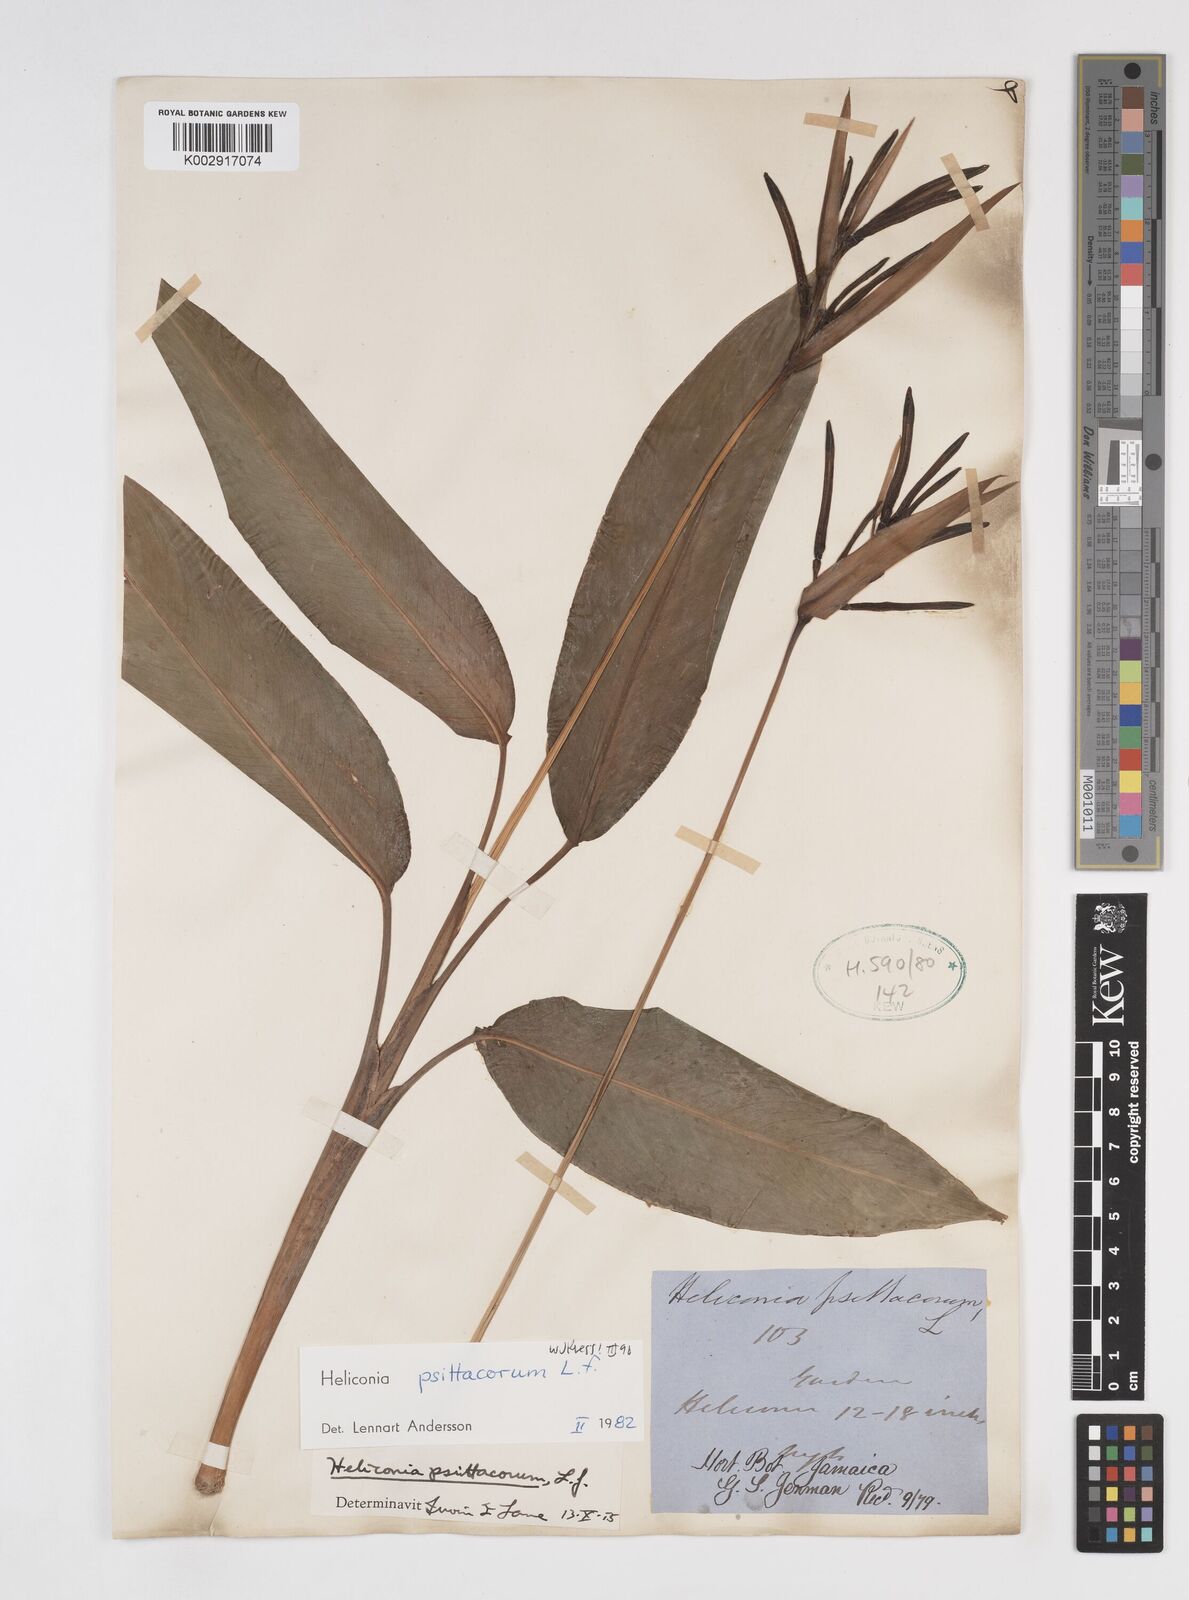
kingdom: Plantae
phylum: Tracheophyta
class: Liliopsida
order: Zingiberales
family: Heliconiaceae
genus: Heliconia
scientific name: Heliconia psittacorum
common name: Parrot's-flower
